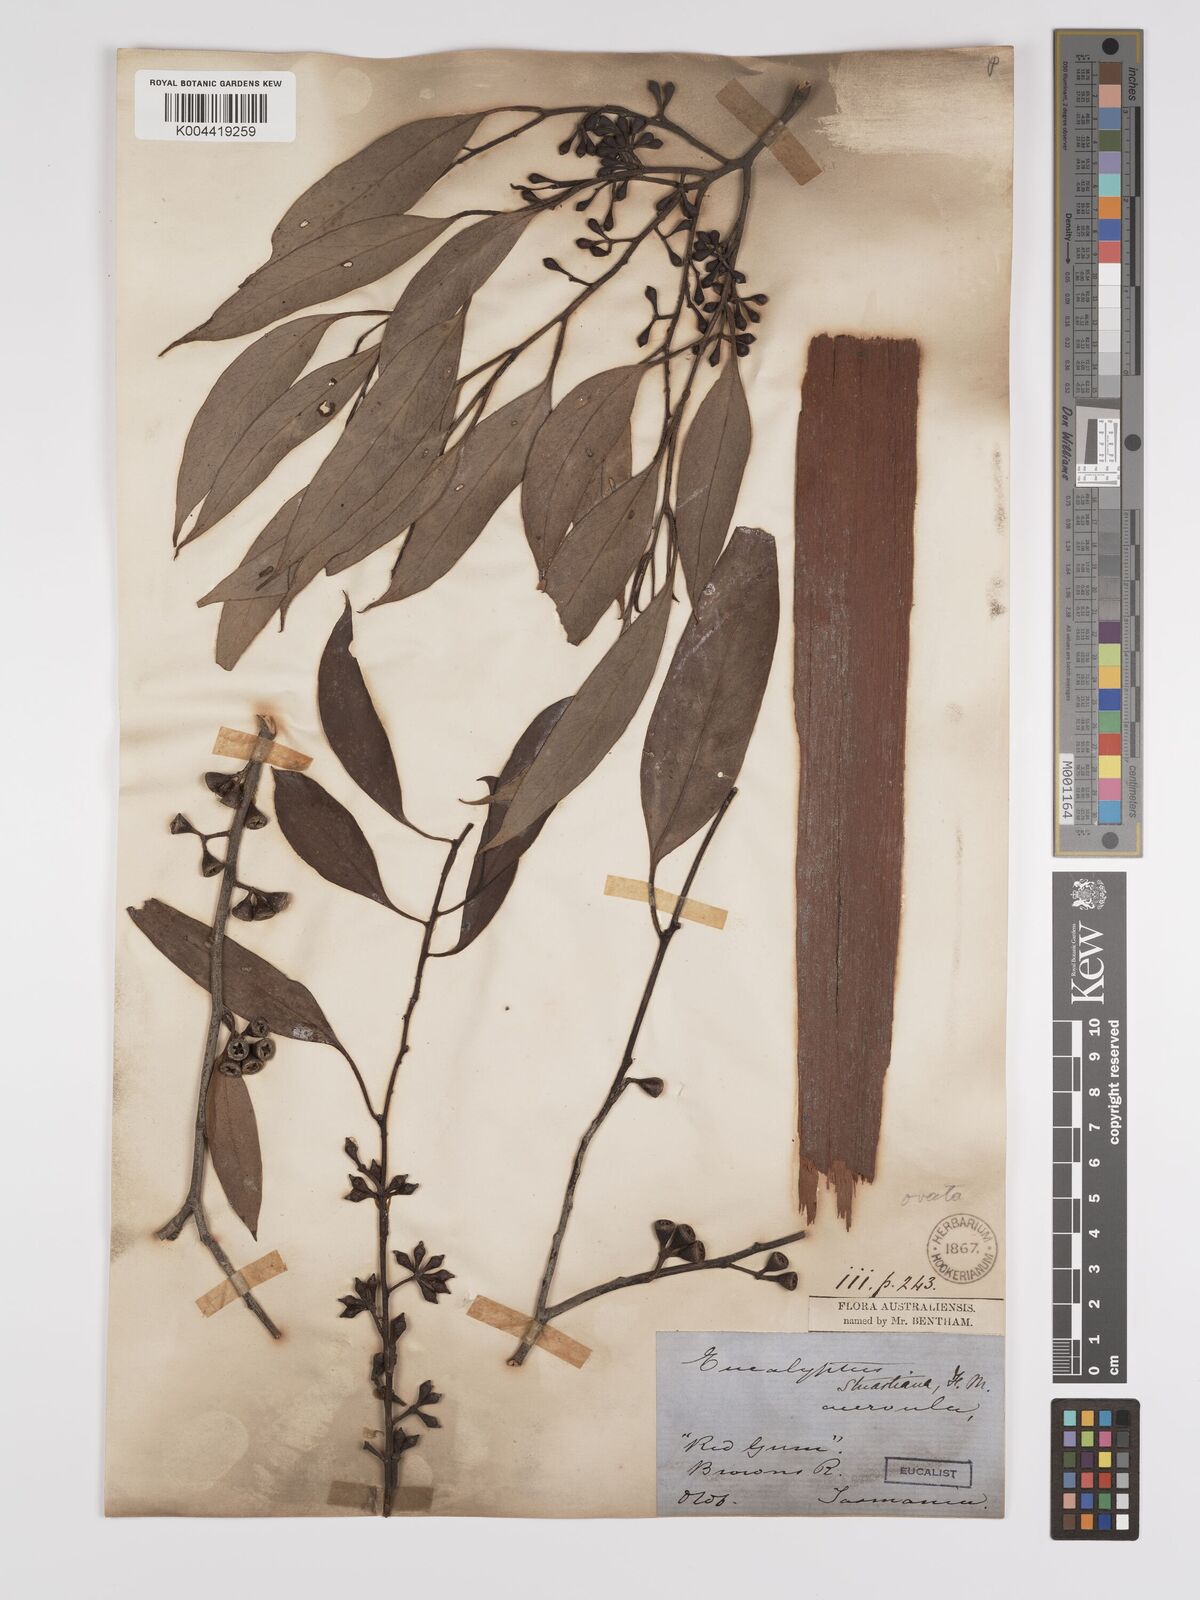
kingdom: Plantae
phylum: Tracheophyta
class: Magnoliopsida
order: Myrtales
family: Myrtaceae
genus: Eucalyptus
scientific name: Eucalyptus ovata
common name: Black-gum
